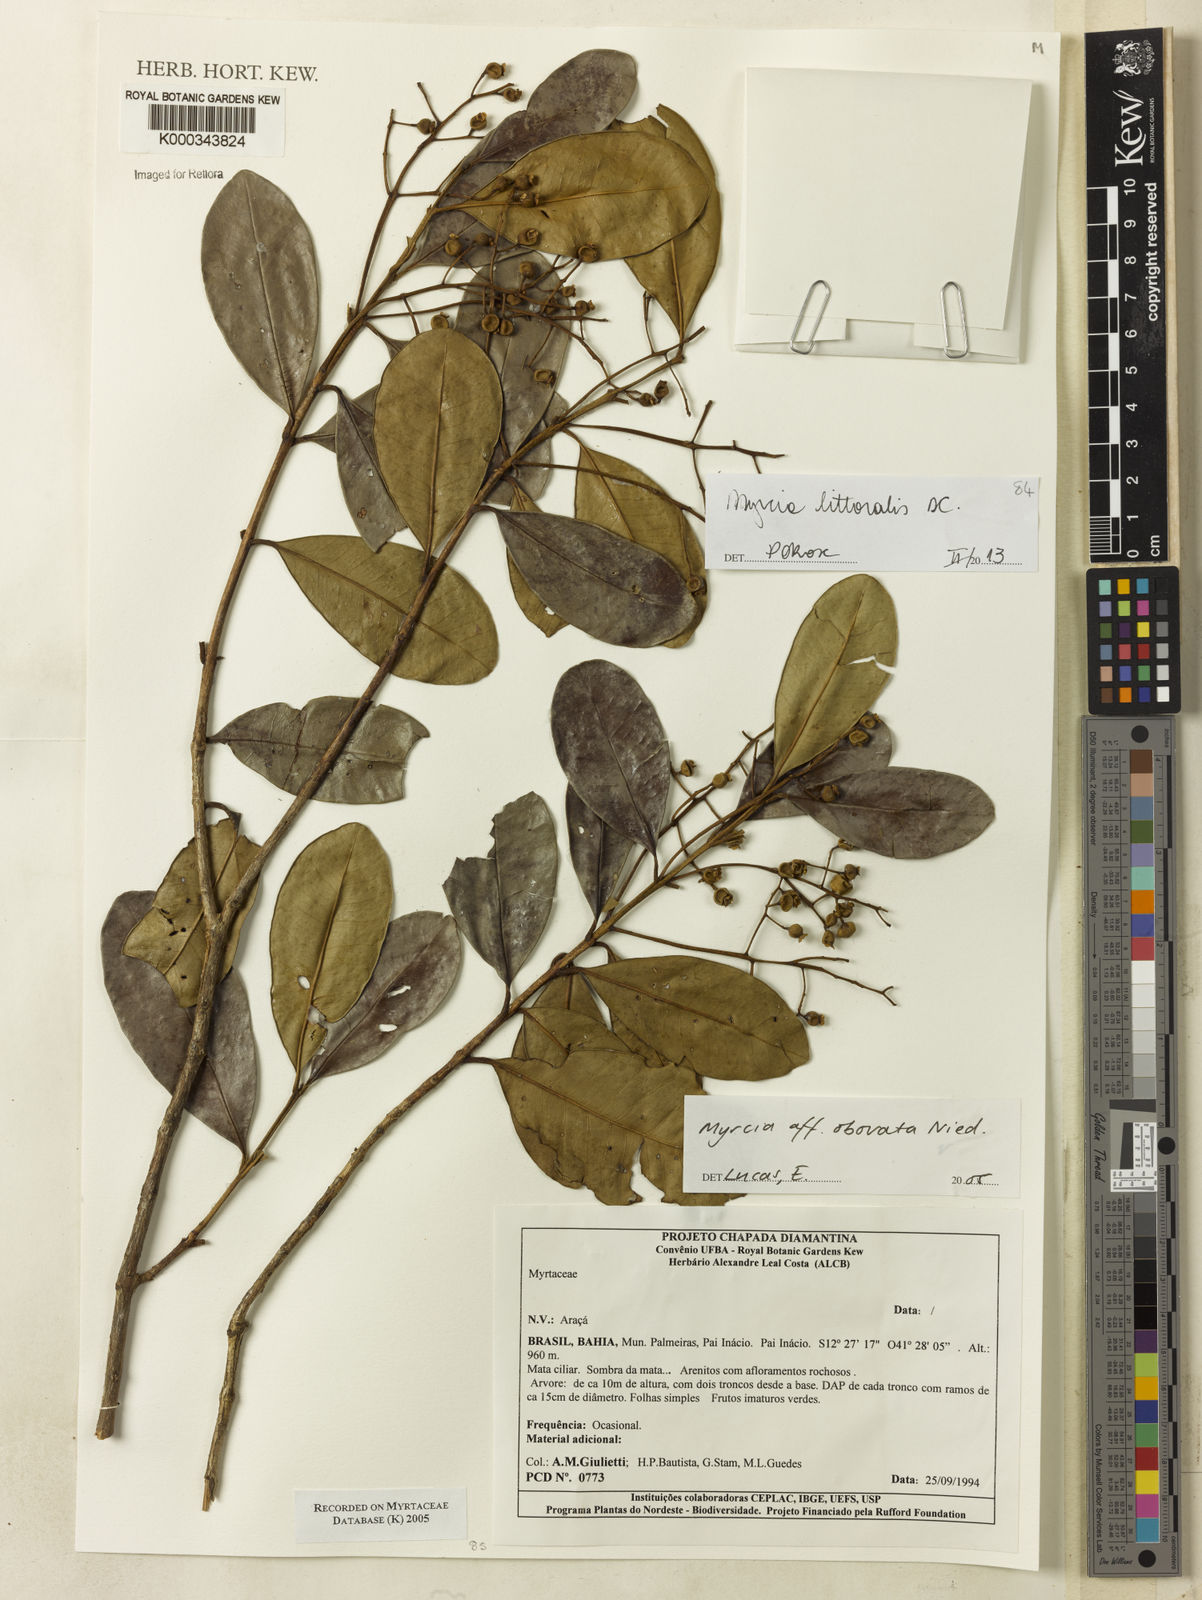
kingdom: Plantae
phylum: Tracheophyta
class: Magnoliopsida
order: Myrtales
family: Myrtaceae
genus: Myrcia
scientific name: Myrcia obovata
